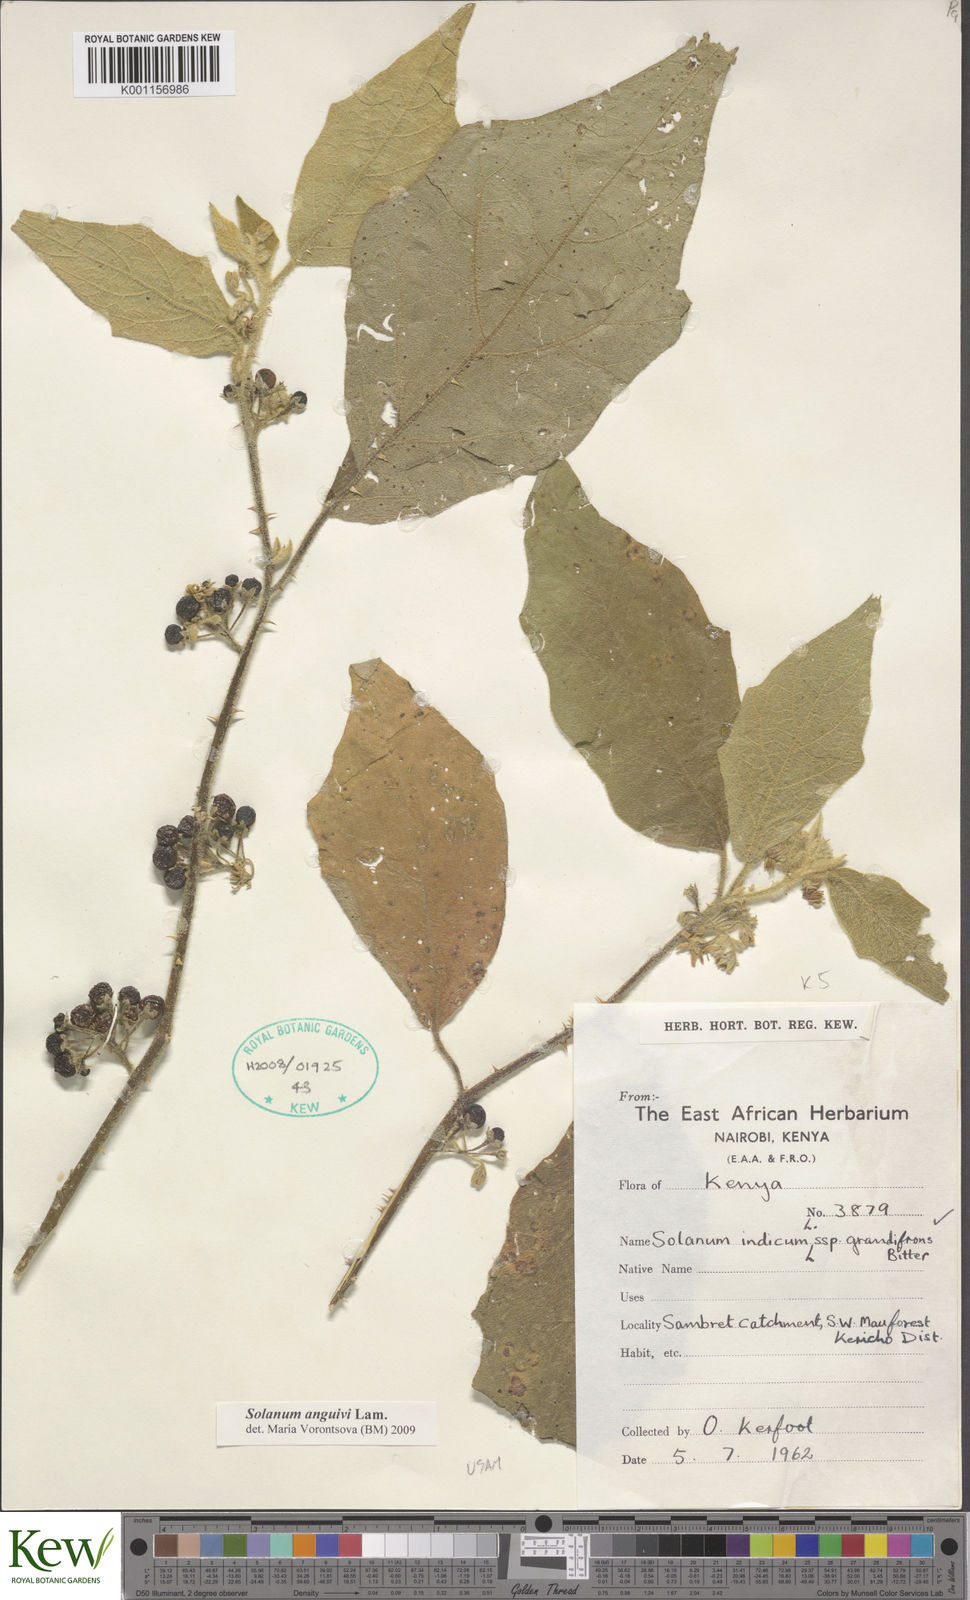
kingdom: Plantae
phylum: Tracheophyta
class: Magnoliopsida
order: Solanales
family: Solanaceae
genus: Solanum
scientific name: Solanum anguivi
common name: Forest bitterberry
